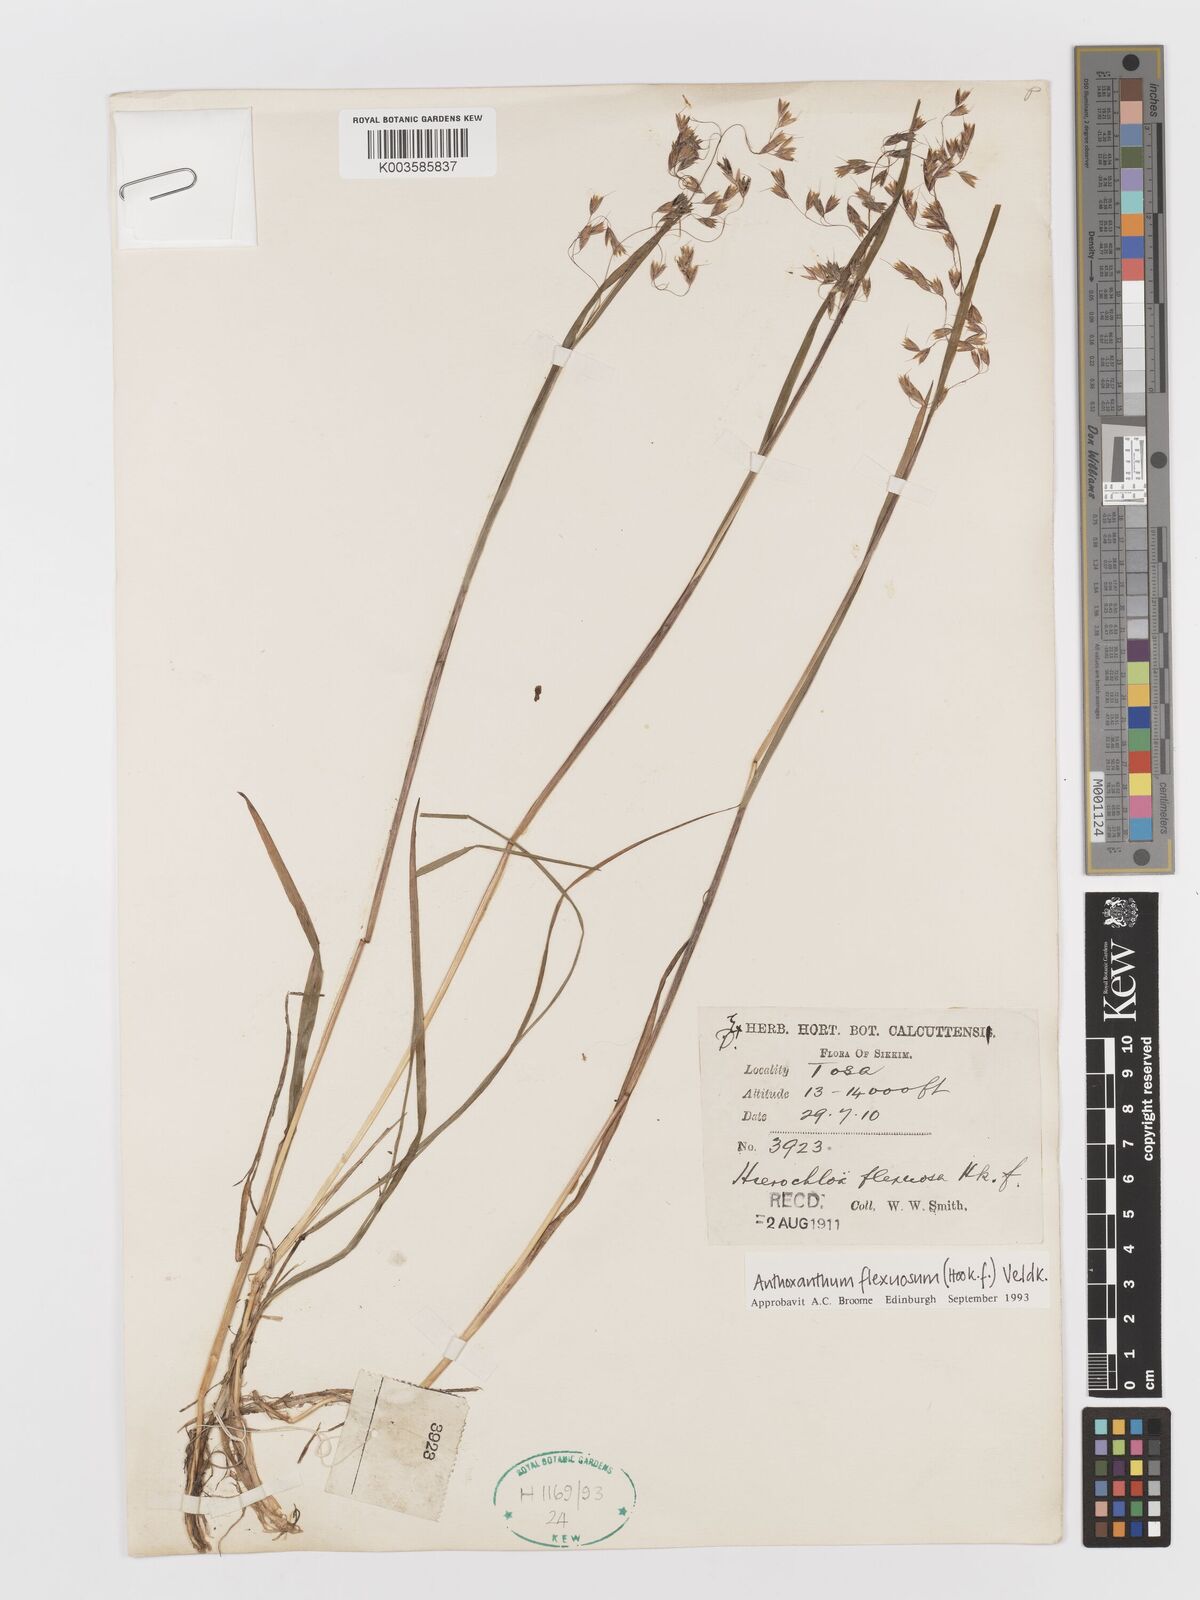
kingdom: Plantae
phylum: Tracheophyta
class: Liliopsida
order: Poales
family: Poaceae
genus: Anthoxanthum
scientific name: Anthoxanthum flexuosum
